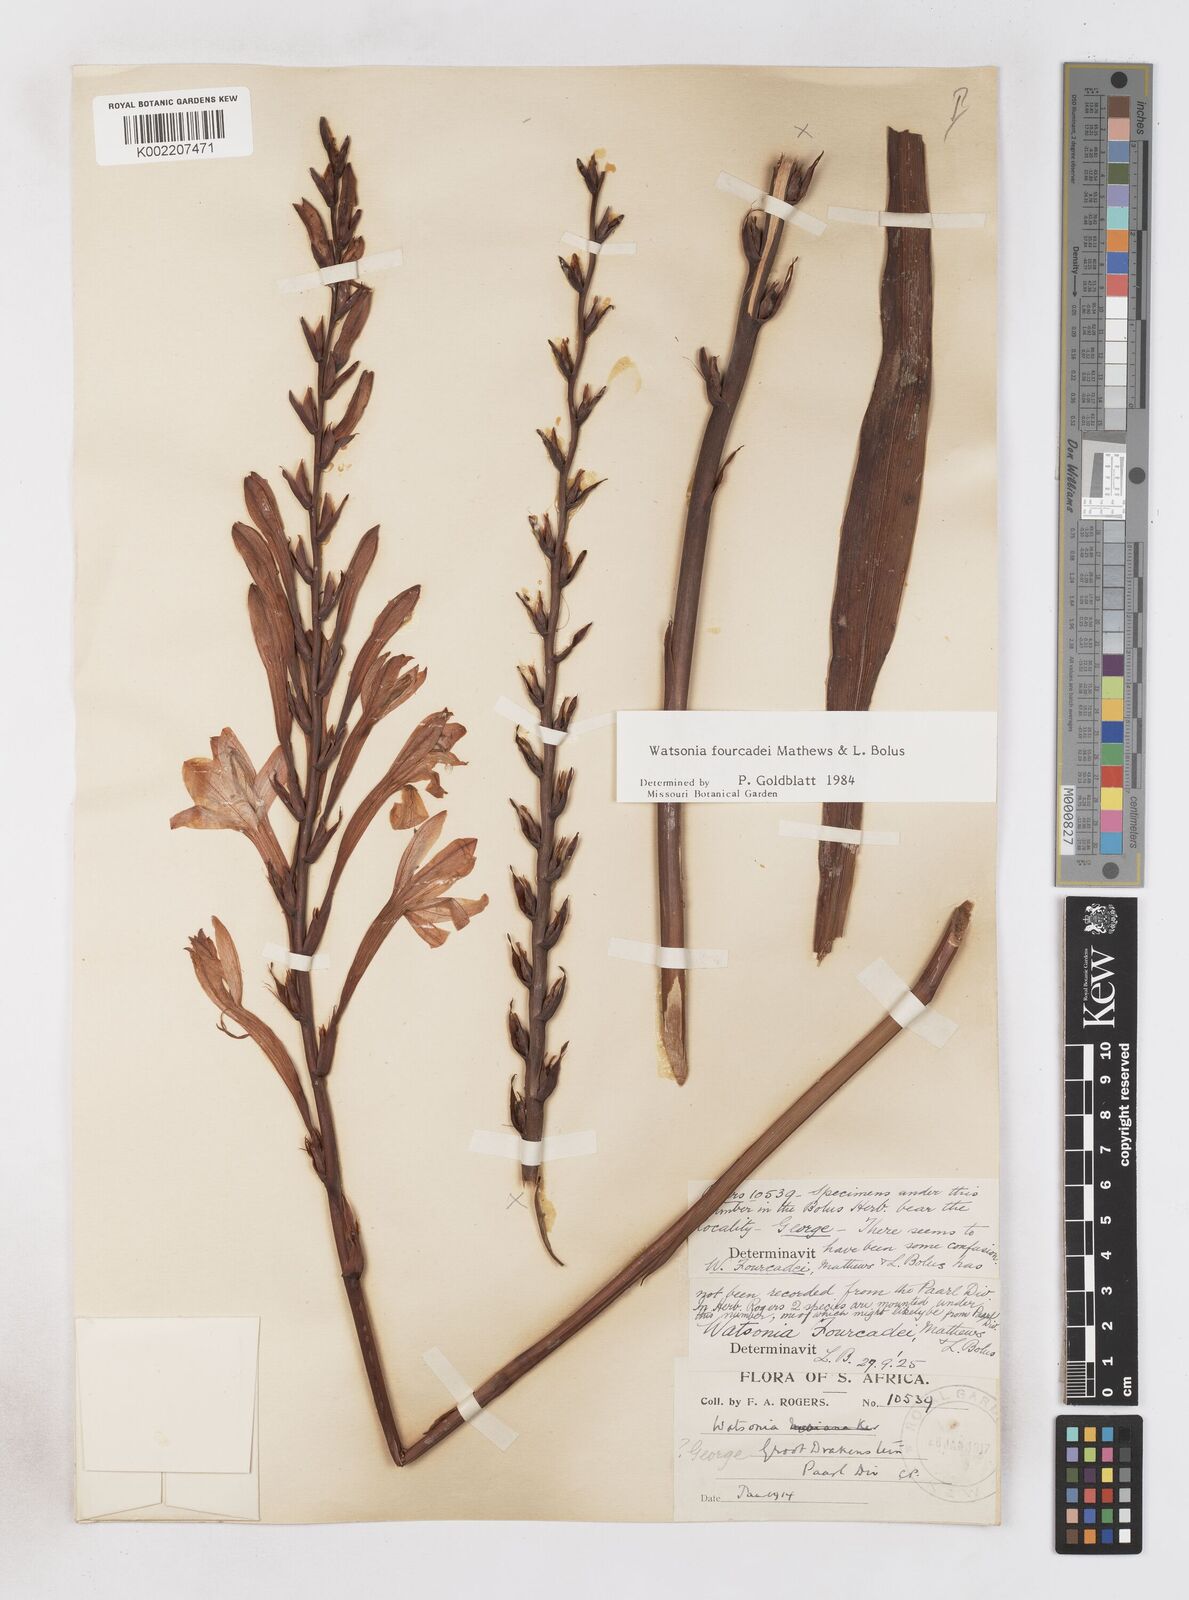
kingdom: Plantae
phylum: Tracheophyta
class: Liliopsida
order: Asparagales
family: Iridaceae
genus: Watsonia
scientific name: Watsonia fourcadei
